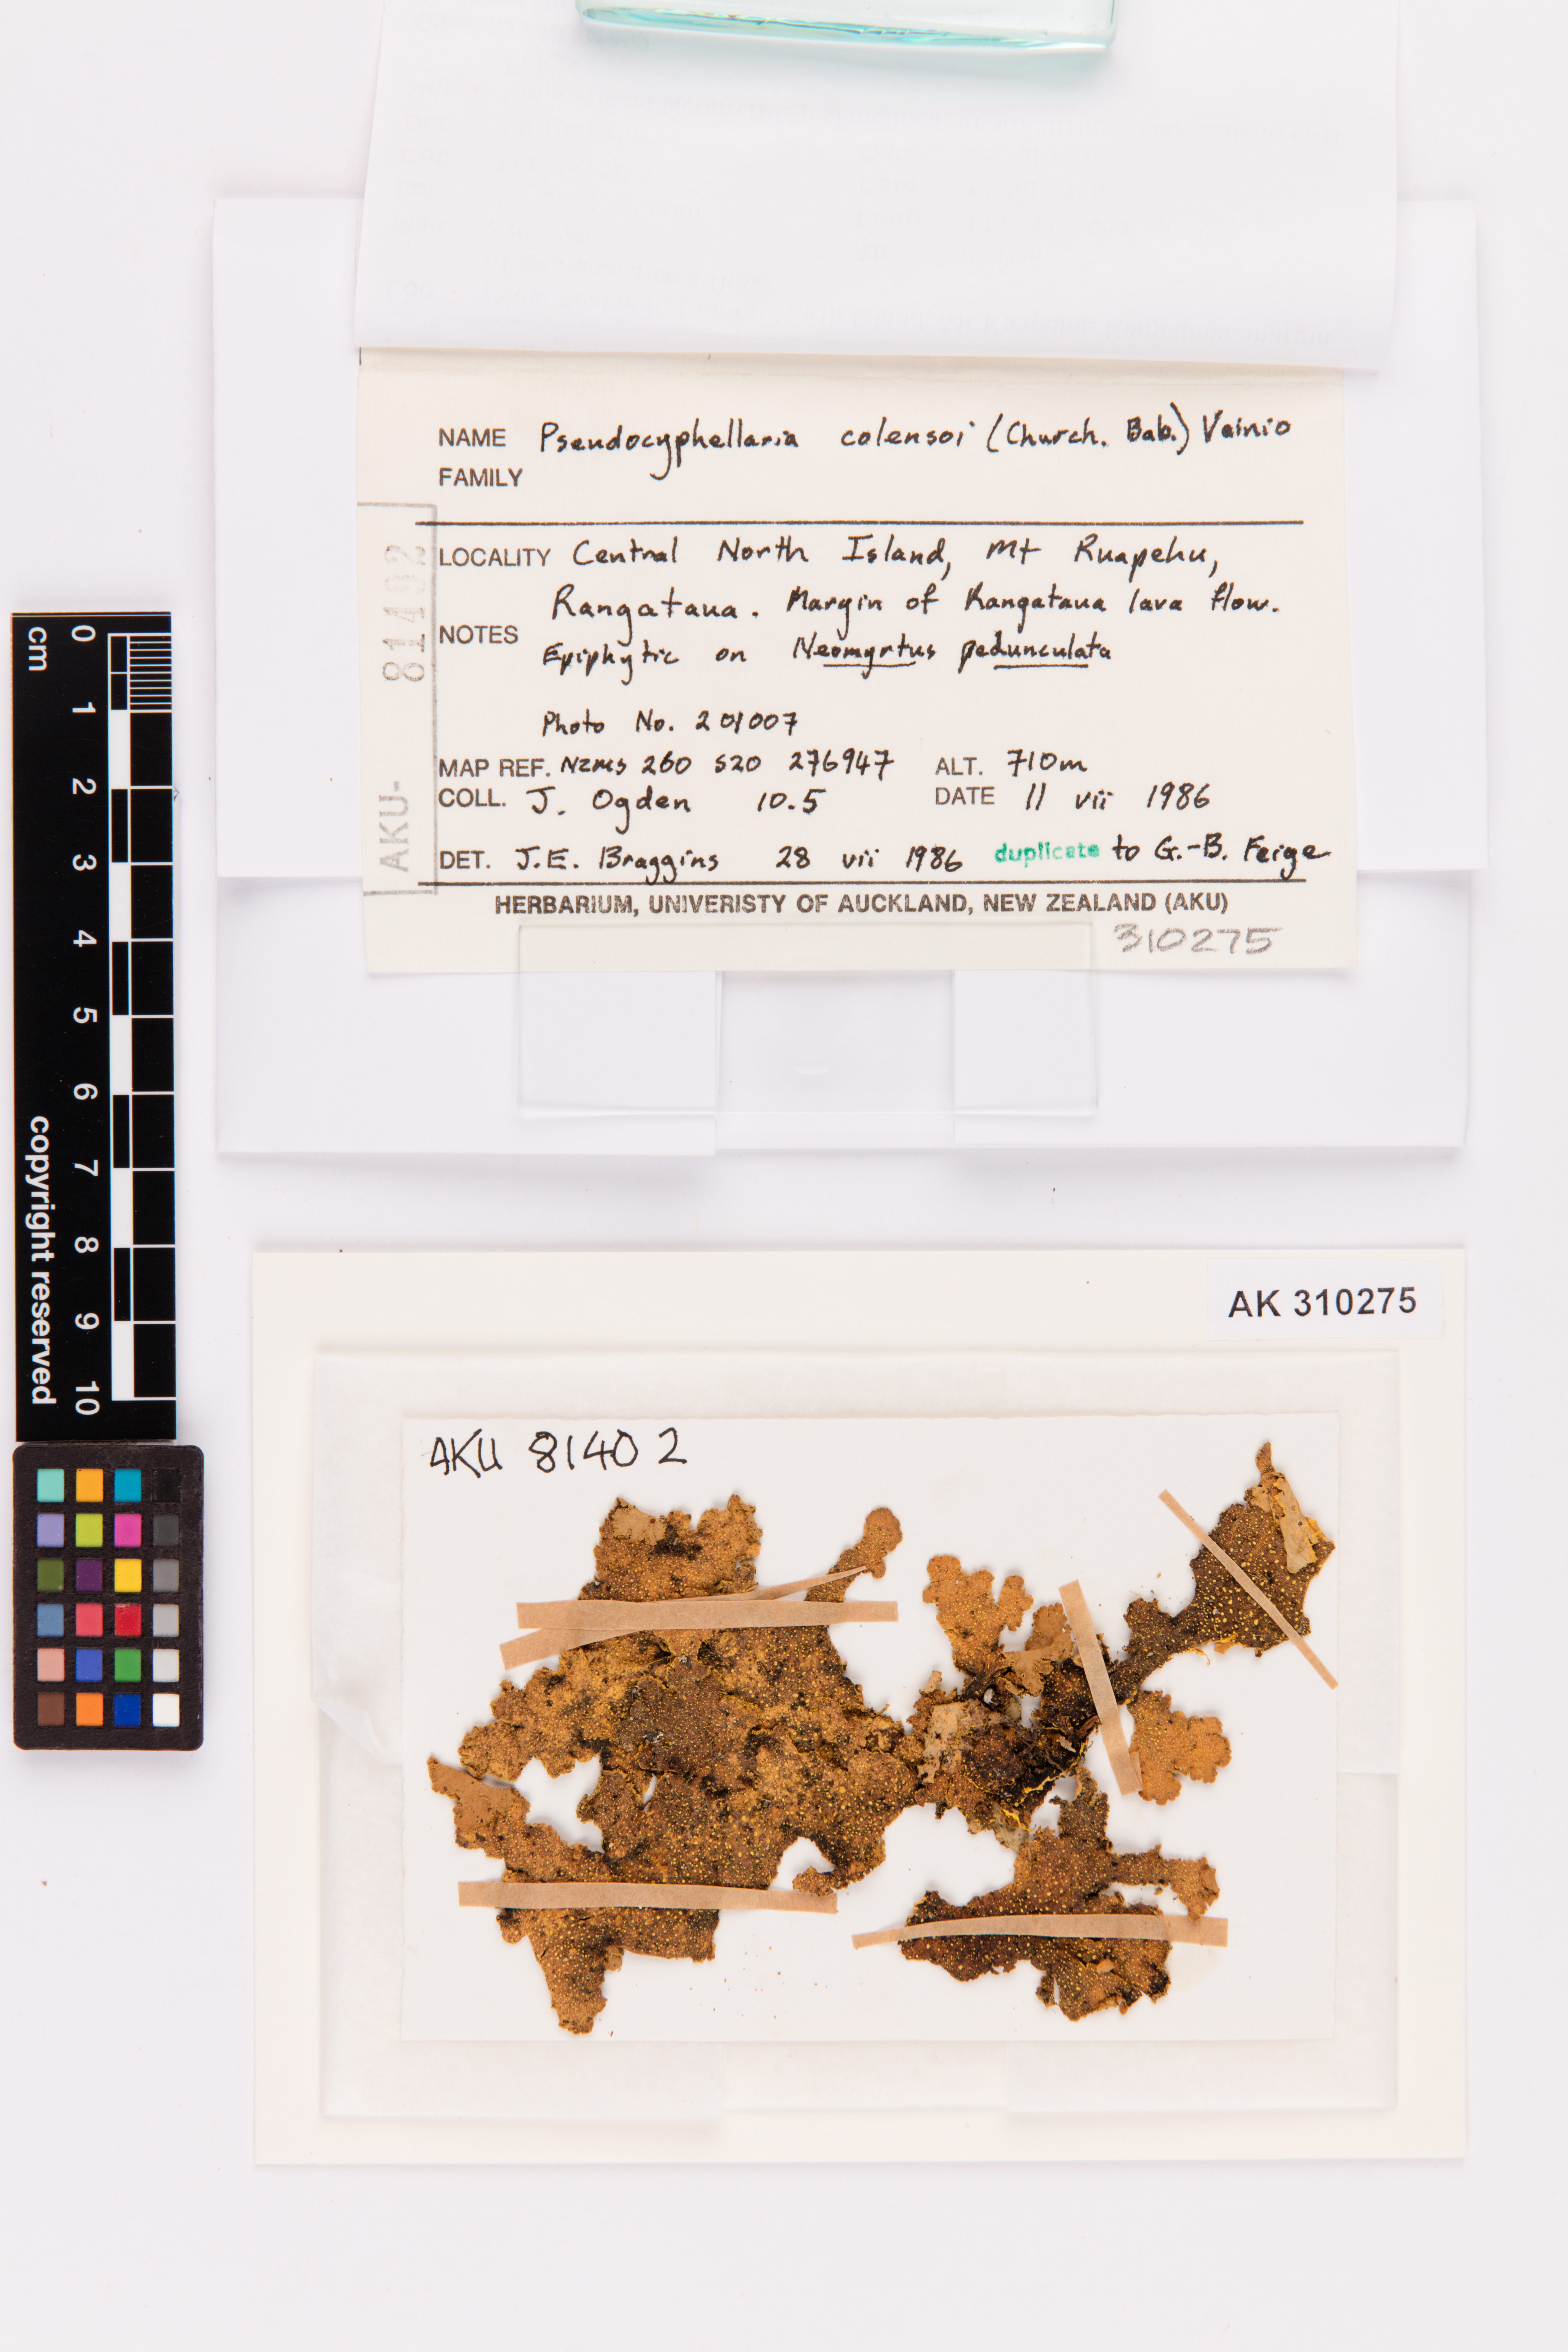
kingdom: Fungi
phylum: Ascomycota
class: Lecanoromycetes
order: Peltigerales
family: Lobariaceae
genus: Yarrumia
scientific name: Yarrumia colensoi
